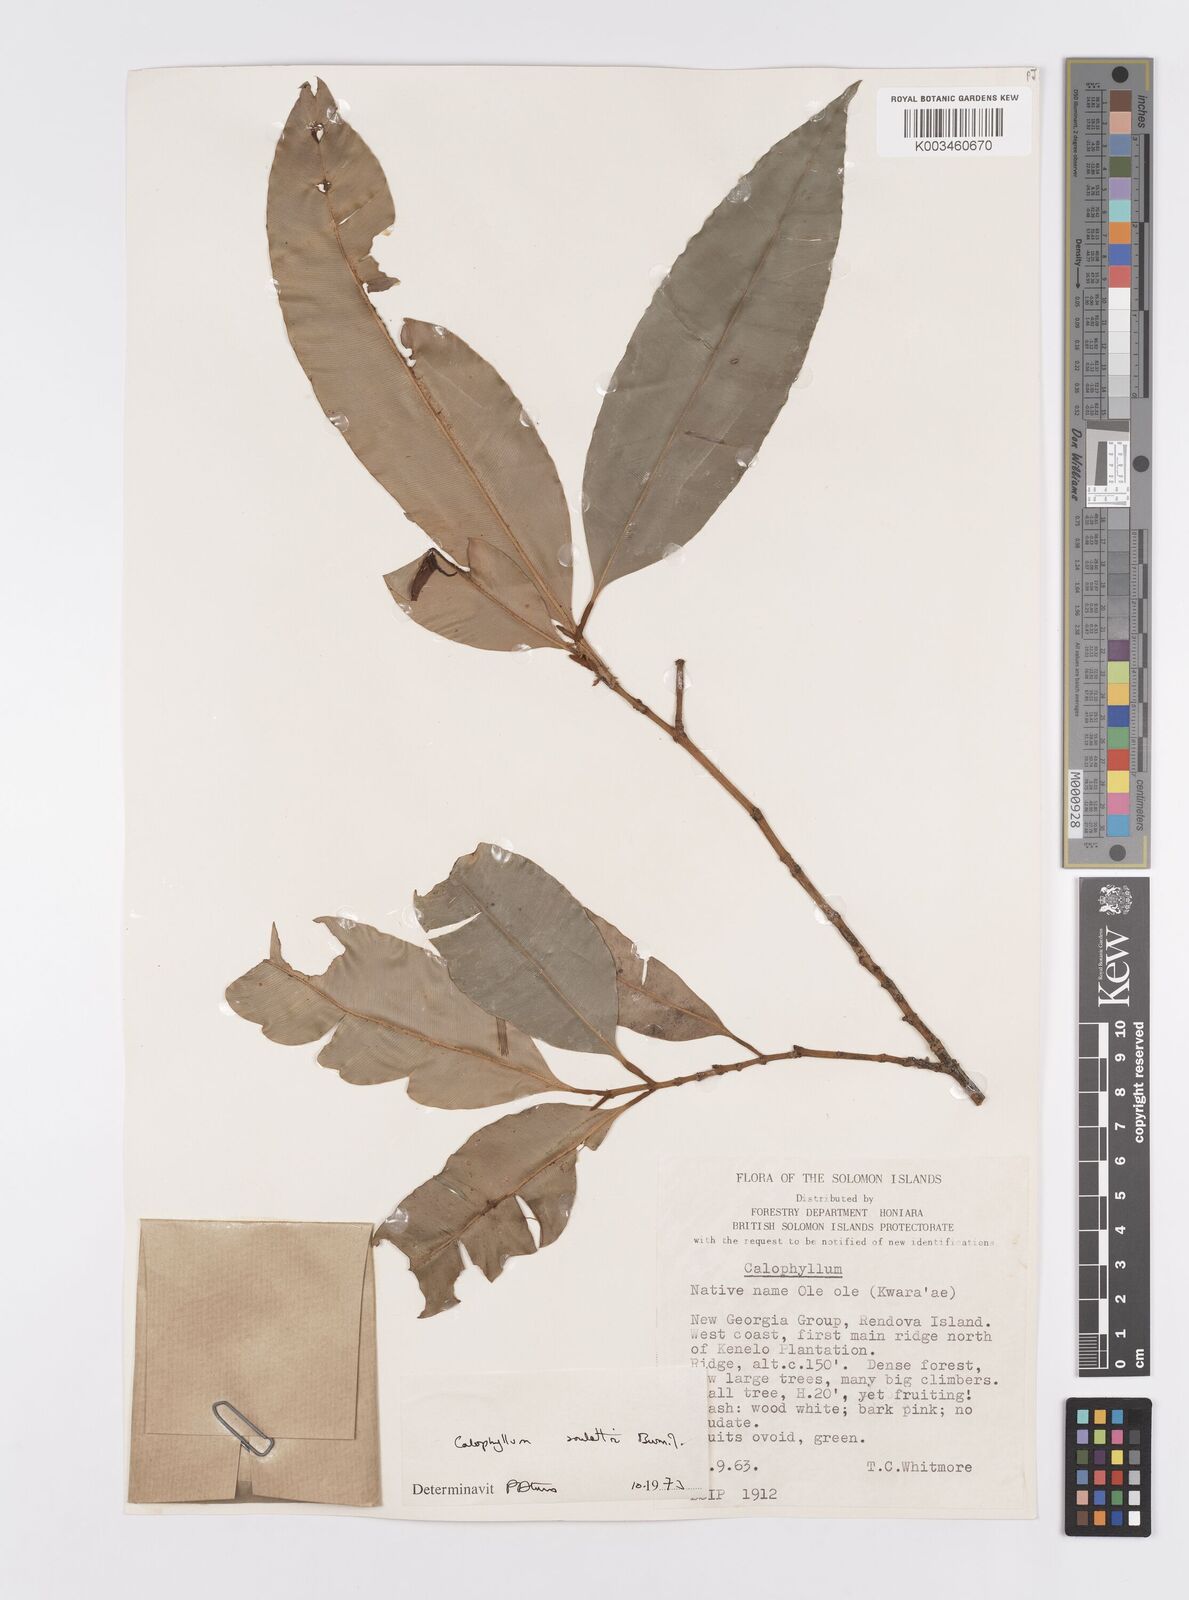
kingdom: Plantae
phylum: Tracheophyta
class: Magnoliopsida
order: Malpighiales
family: Calophyllaceae
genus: Calophyllum
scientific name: Calophyllum soulattri
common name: Bitangoor boonot
